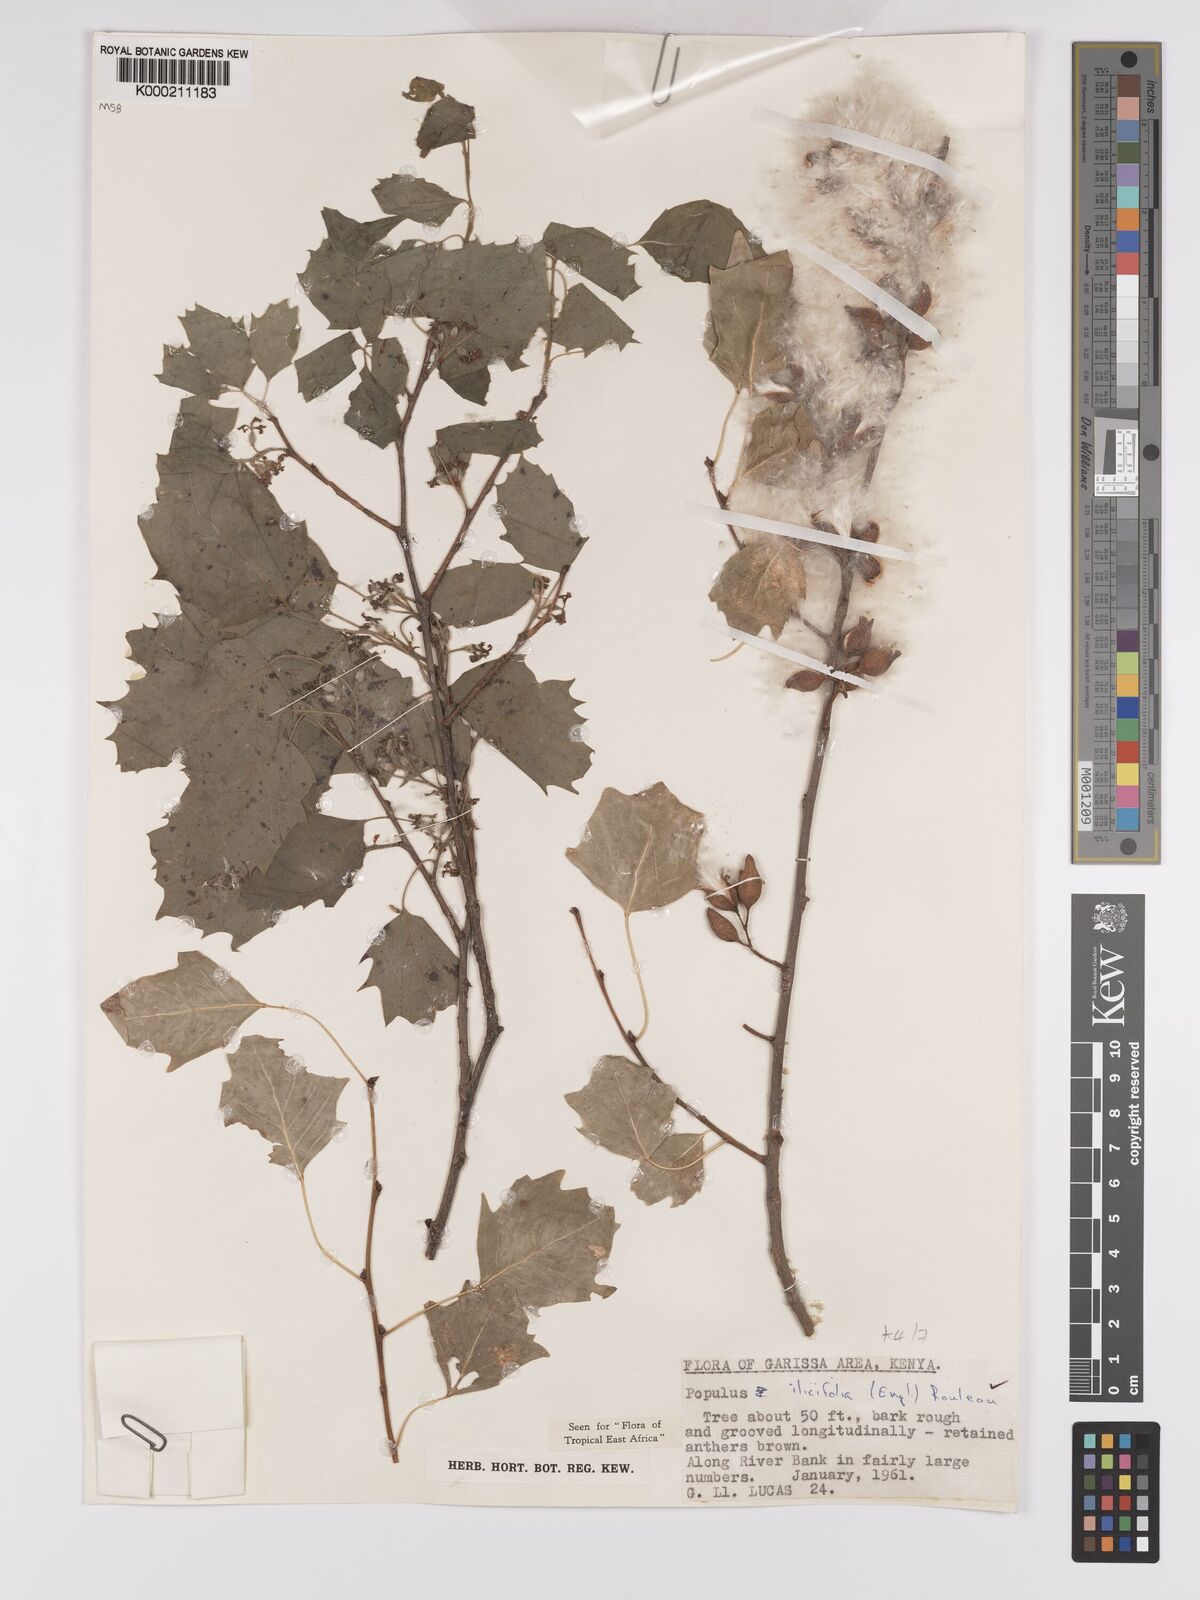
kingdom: Plantae
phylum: Tracheophyta
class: Magnoliopsida
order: Malpighiales
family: Salicaceae
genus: Populus
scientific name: Populus ilicifolia
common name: Tana river poplar
